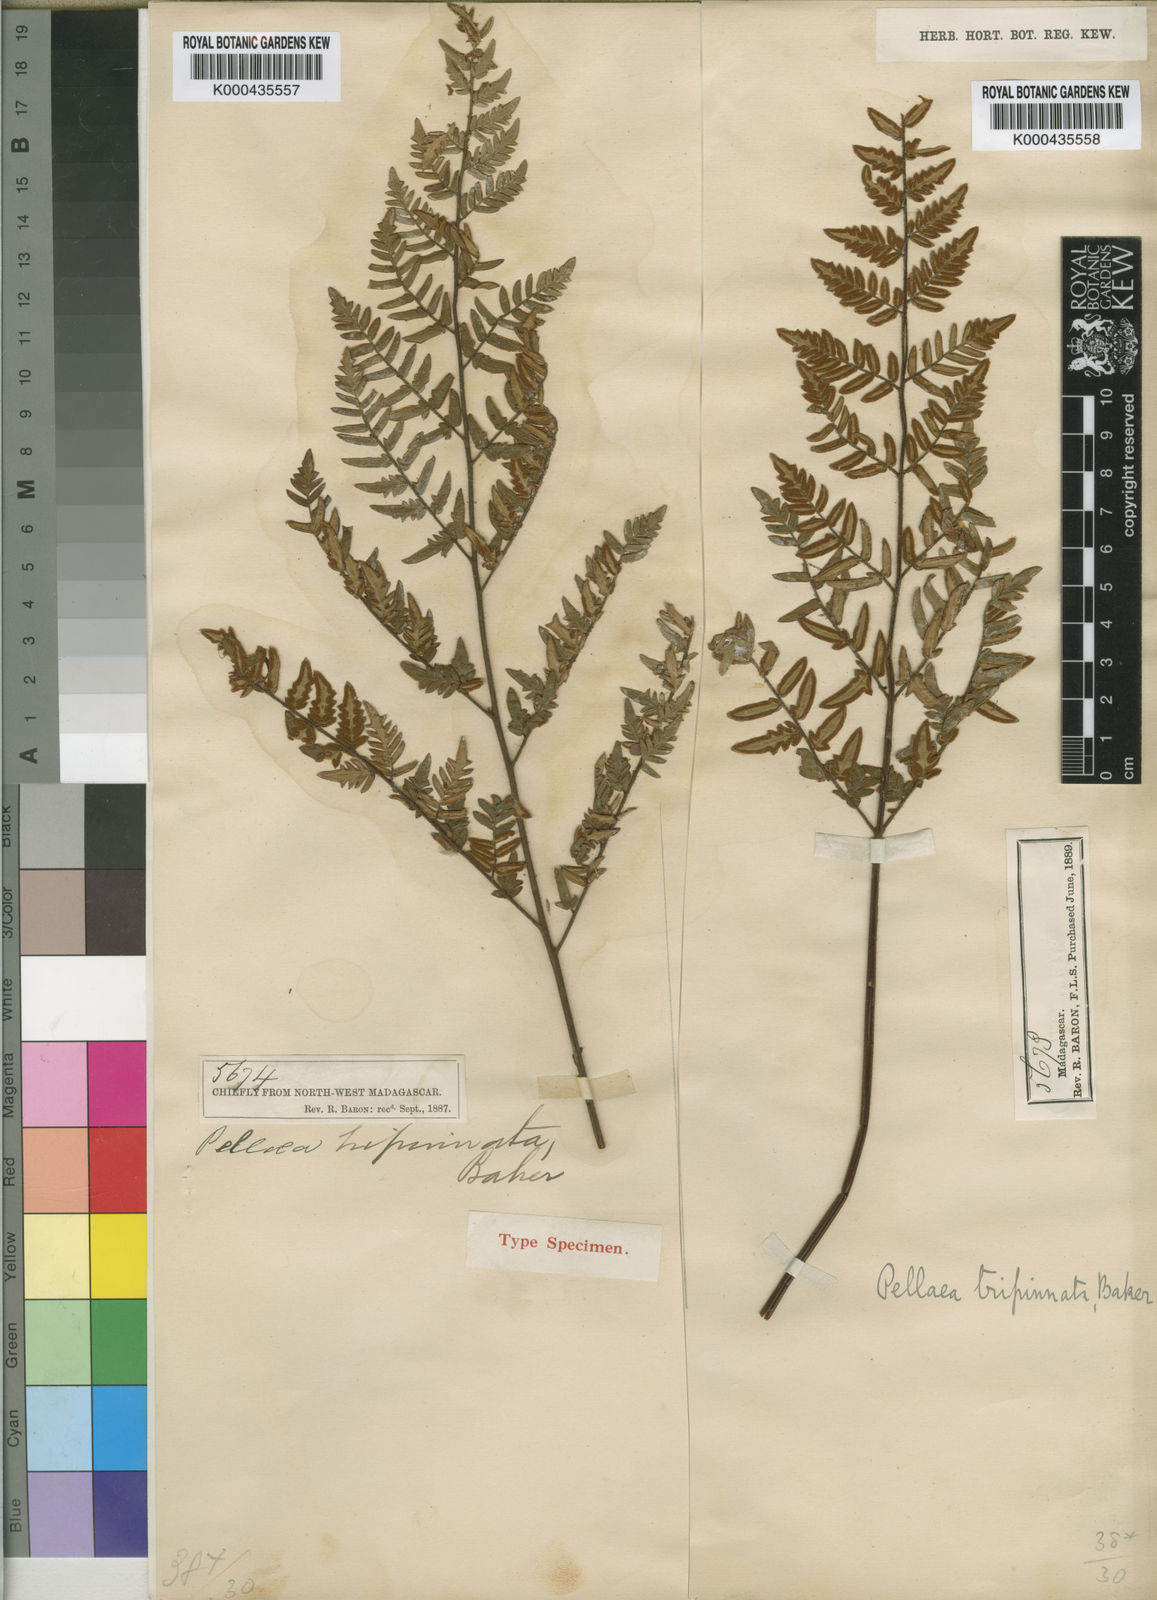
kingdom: Plantae
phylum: Tracheophyta
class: Polypodiopsida
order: Polypodiales
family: Pteridaceae
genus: Pellaea
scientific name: Pellaea tripinnata
